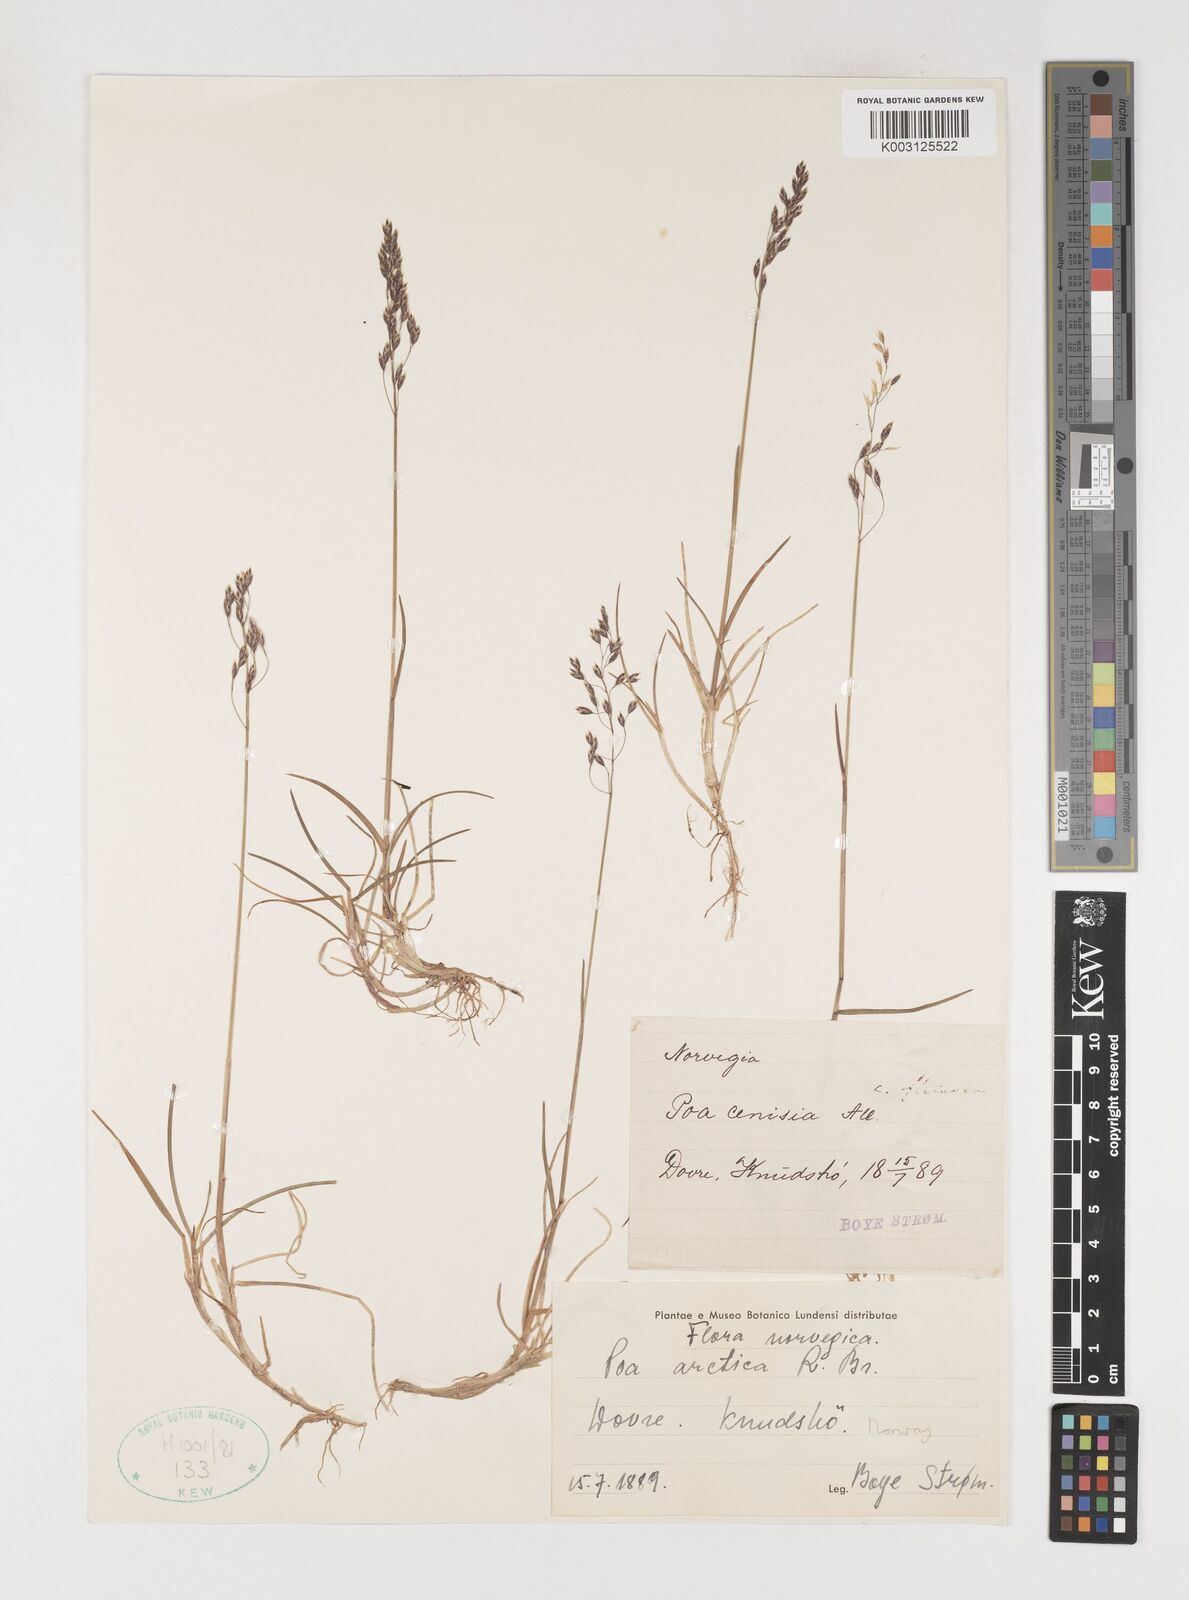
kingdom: Plantae
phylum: Tracheophyta
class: Liliopsida
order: Poales
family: Poaceae
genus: Poa
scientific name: Poa arctica
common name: Arctic bluegrass
